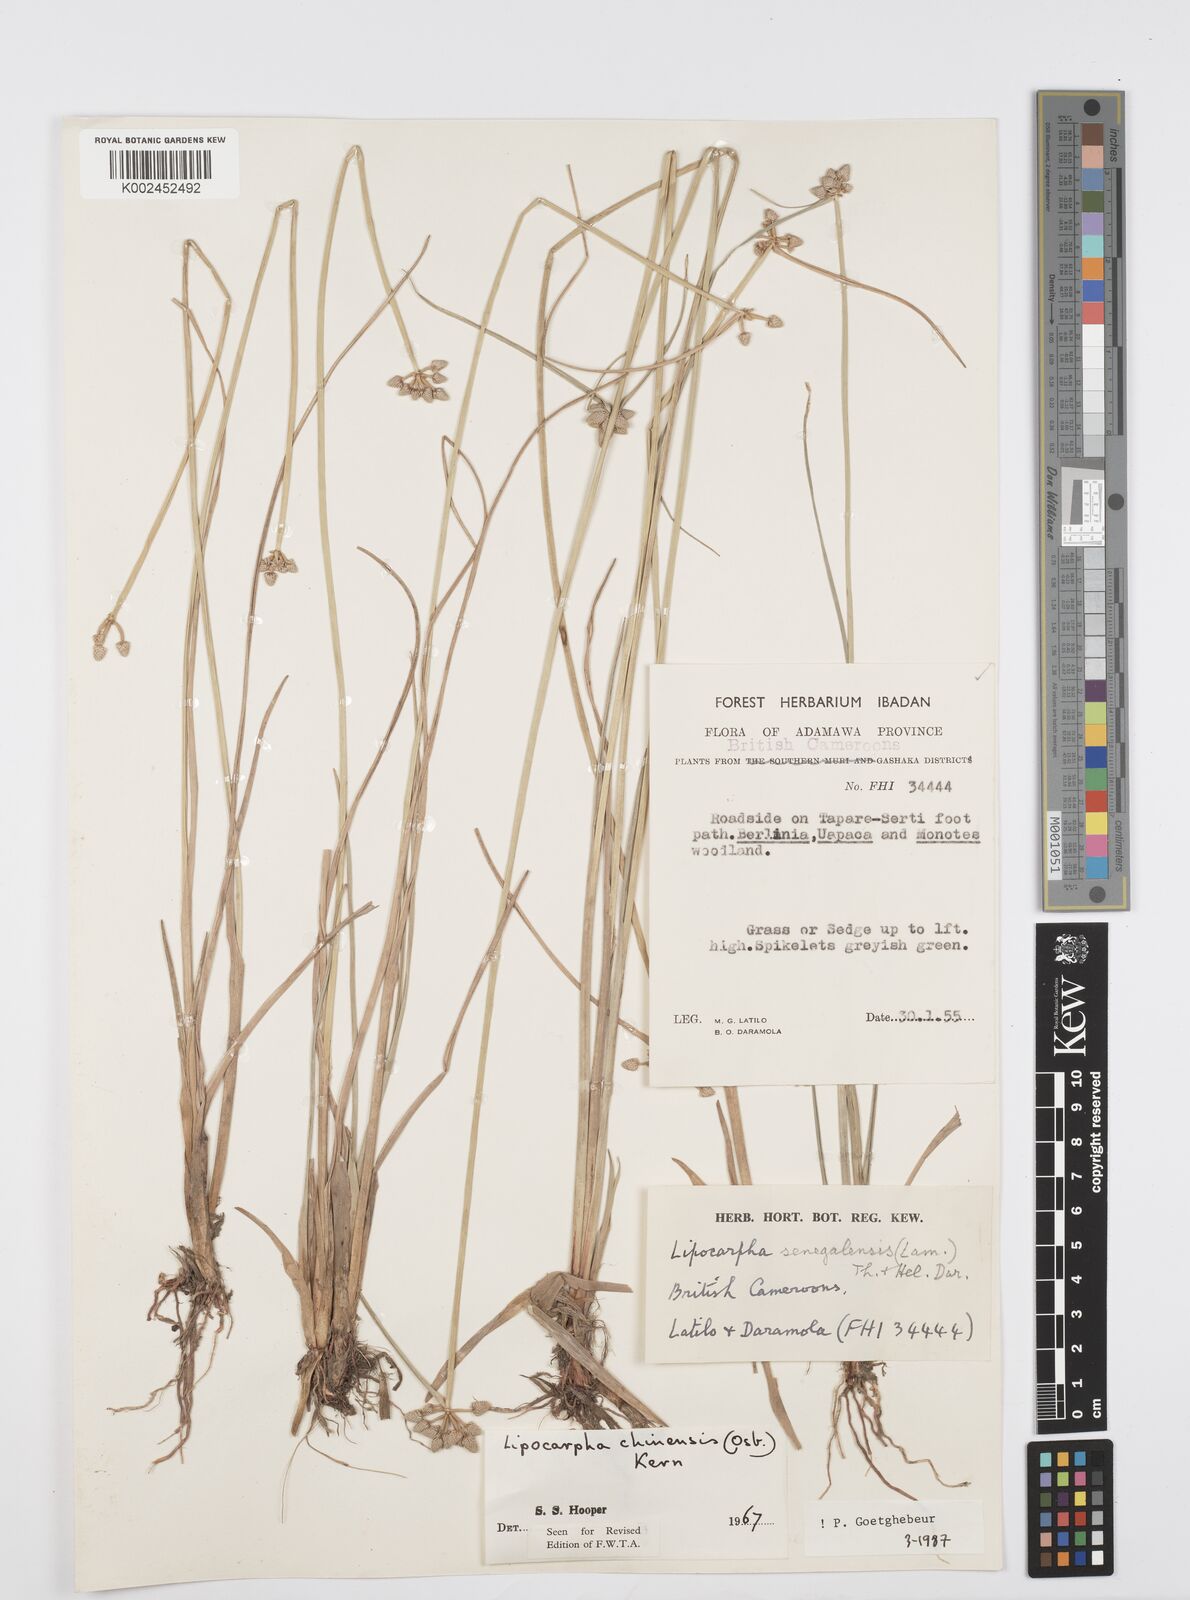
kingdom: Plantae
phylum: Tracheophyta
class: Liliopsida
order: Poales
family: Cyperaceae
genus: Cyperus
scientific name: Cyperus albescens
